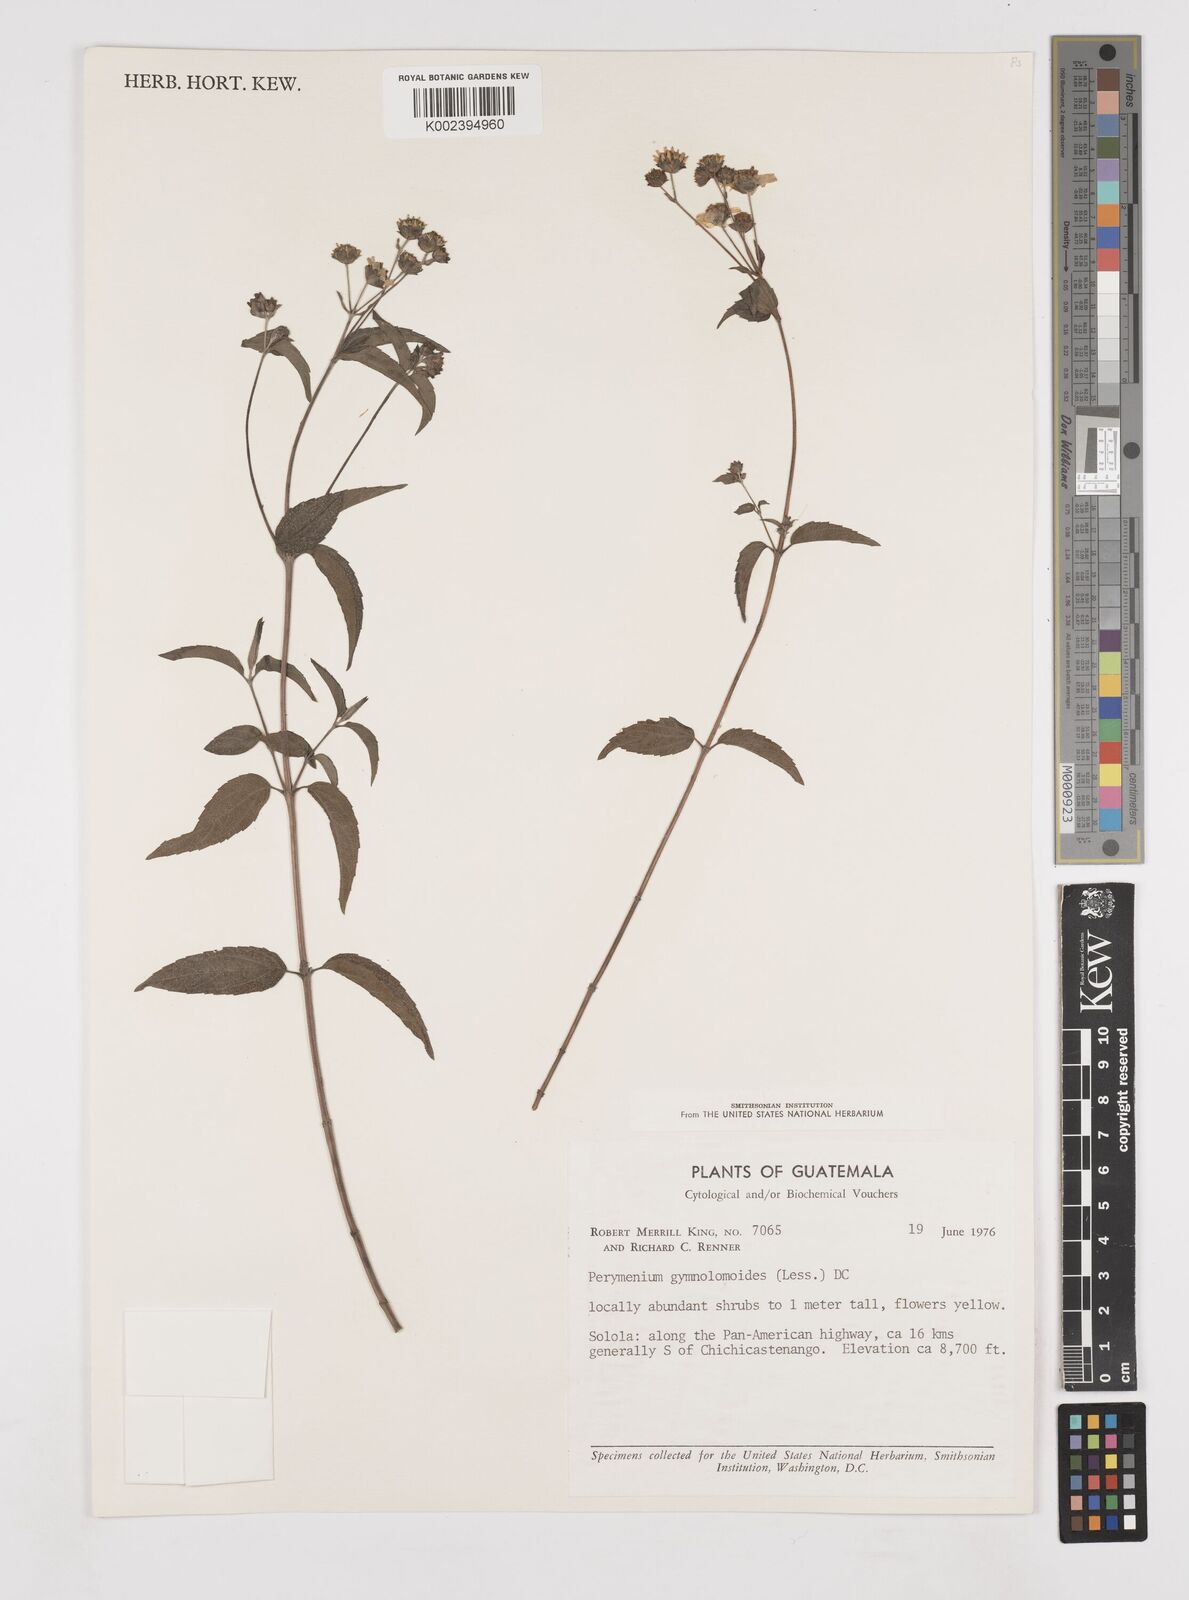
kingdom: Plantae
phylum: Tracheophyta
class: Magnoliopsida
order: Asterales
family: Asteraceae
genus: Perymenium
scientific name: Perymenium gymnolomoides
